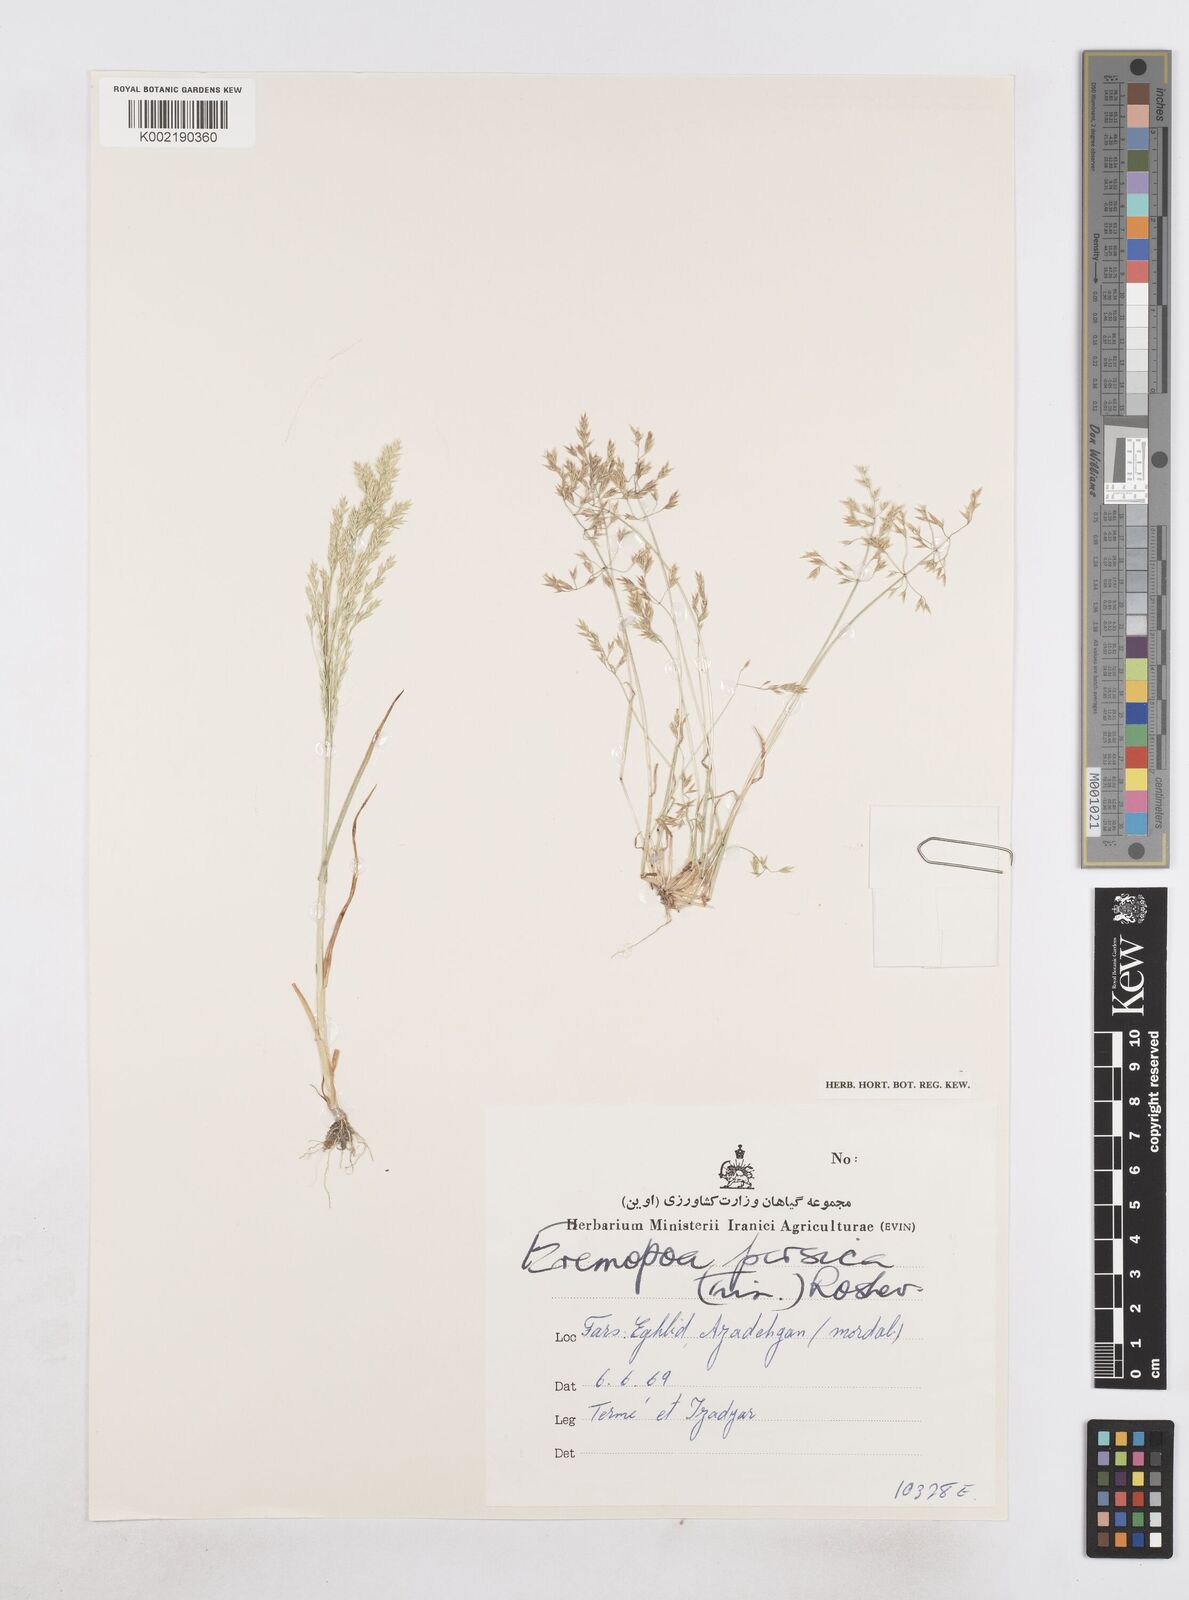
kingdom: Plantae
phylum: Tracheophyta
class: Liliopsida
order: Poales
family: Poaceae
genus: Poa
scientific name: Poa persica
